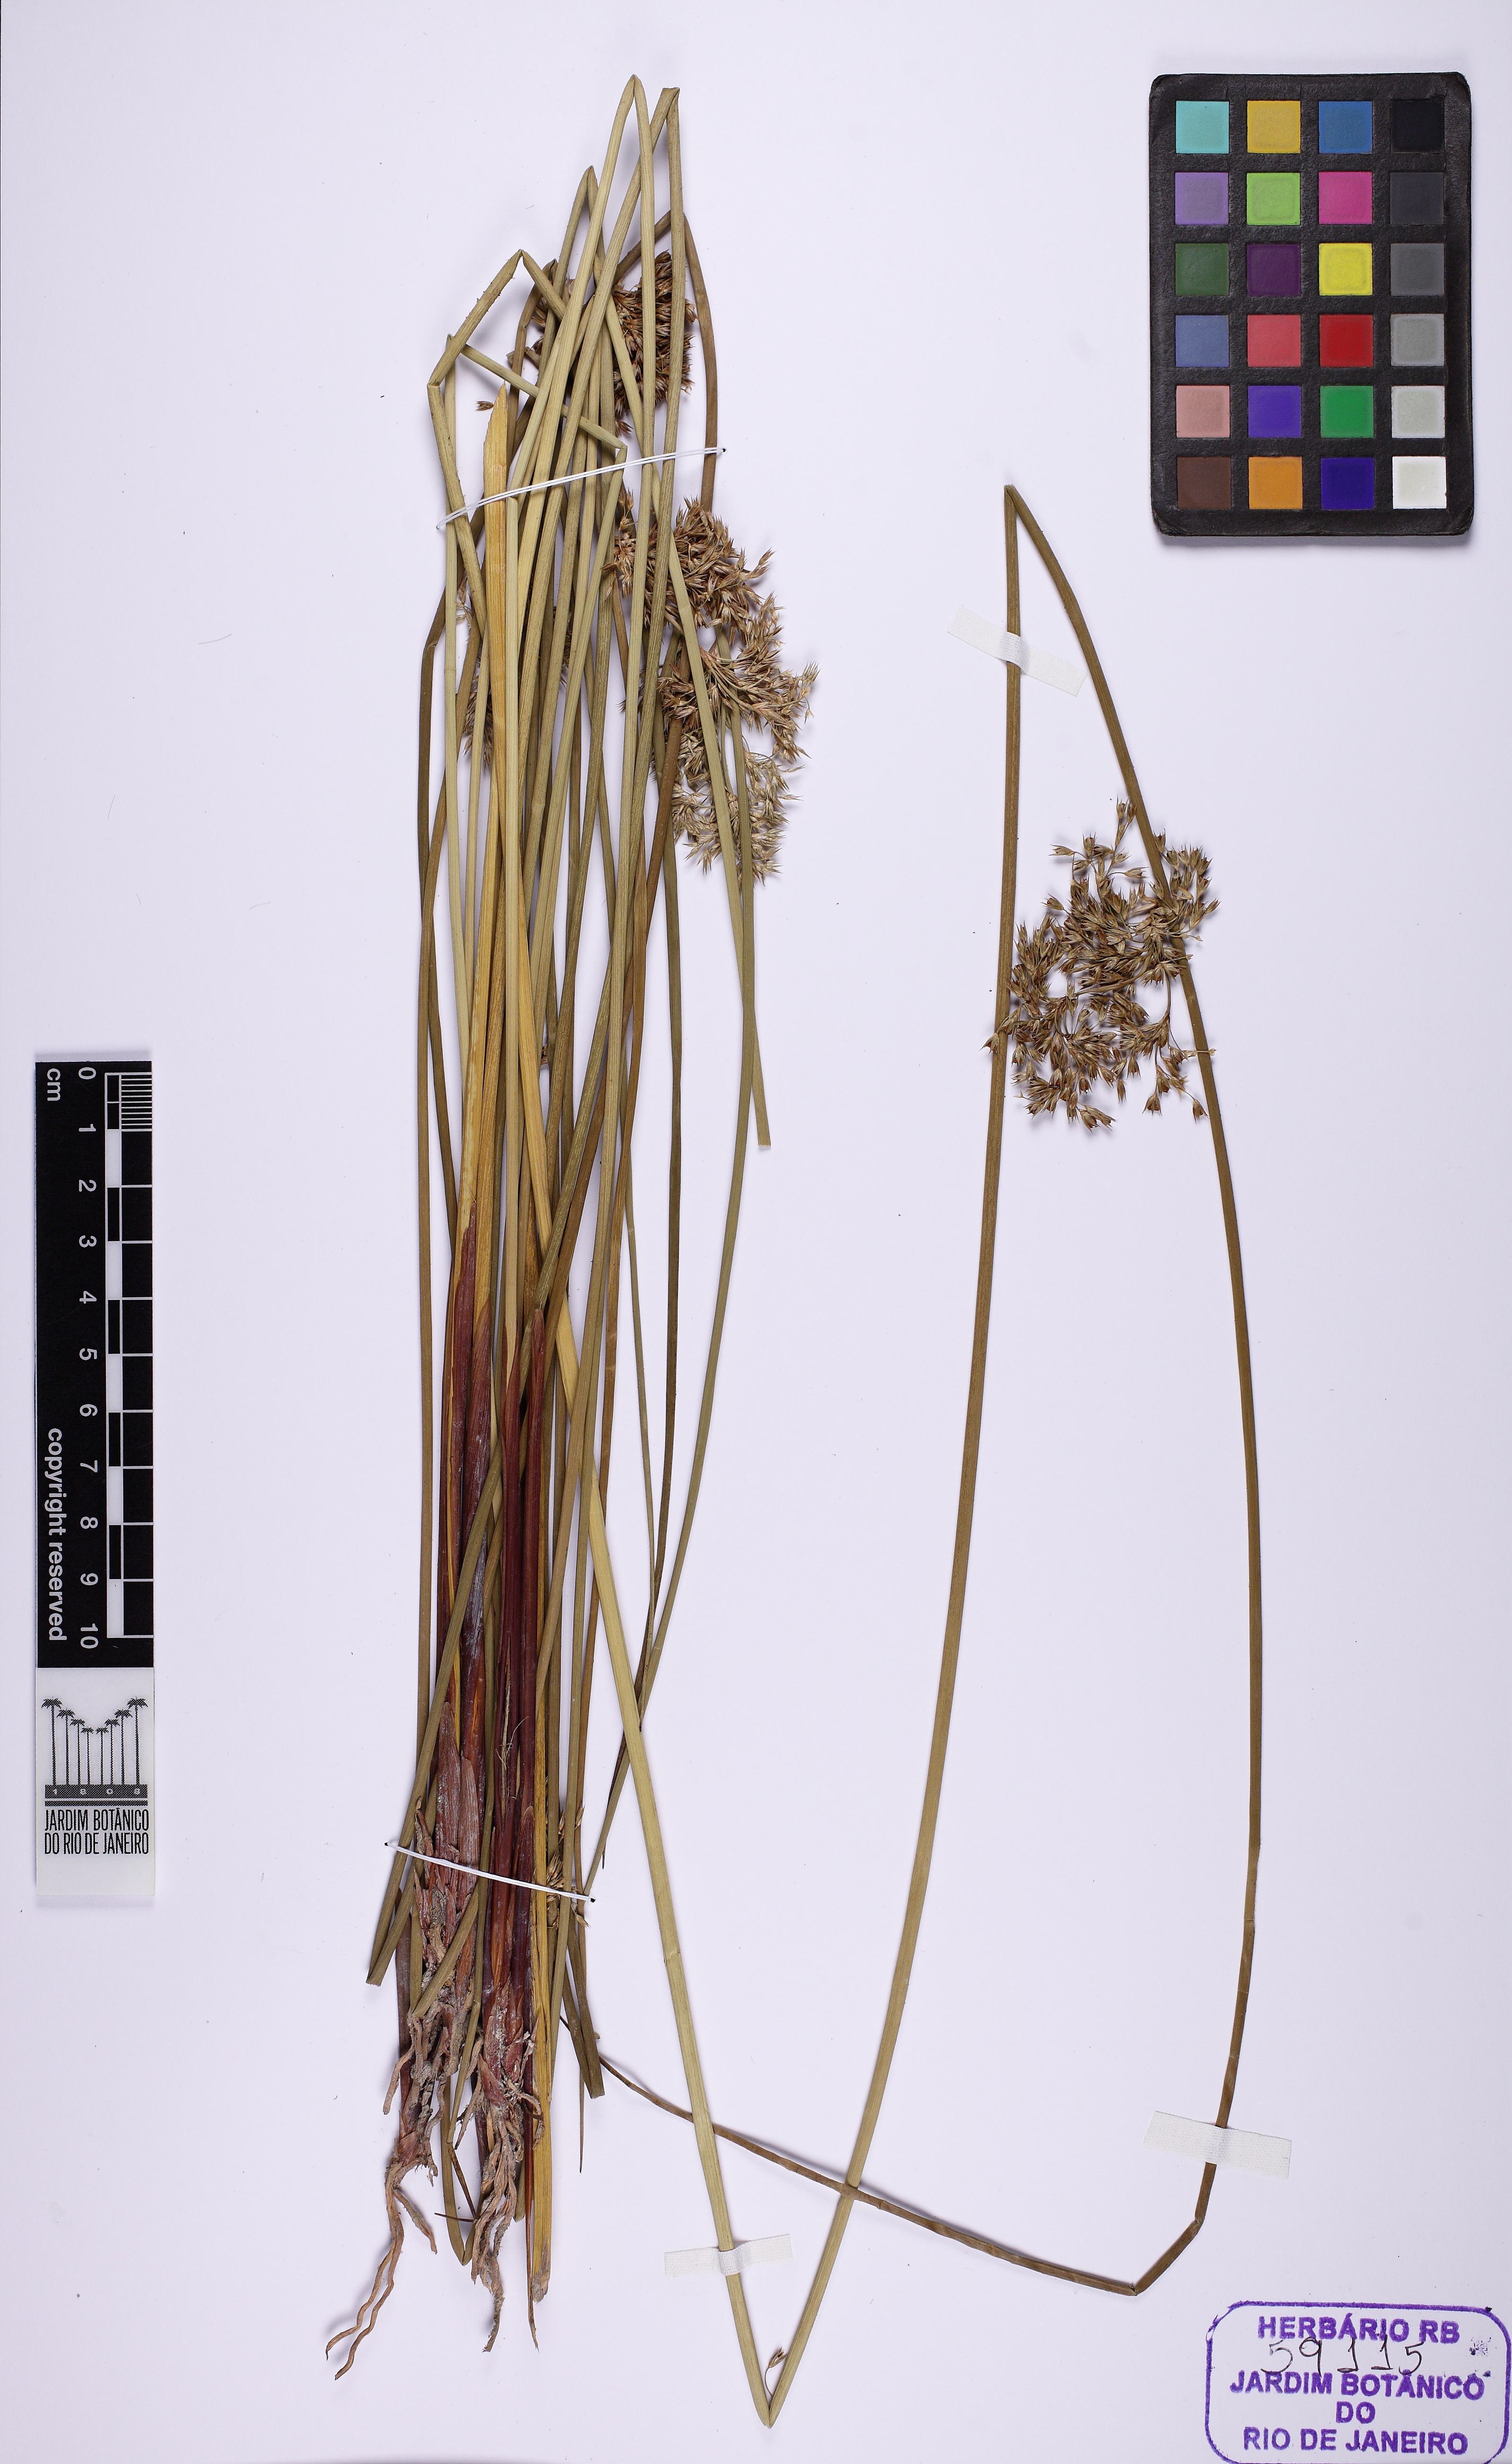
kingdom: Plantae
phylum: Tracheophyta
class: Liliopsida
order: Poales
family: Juncaceae
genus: Juncus
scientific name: Juncus capillaceus
